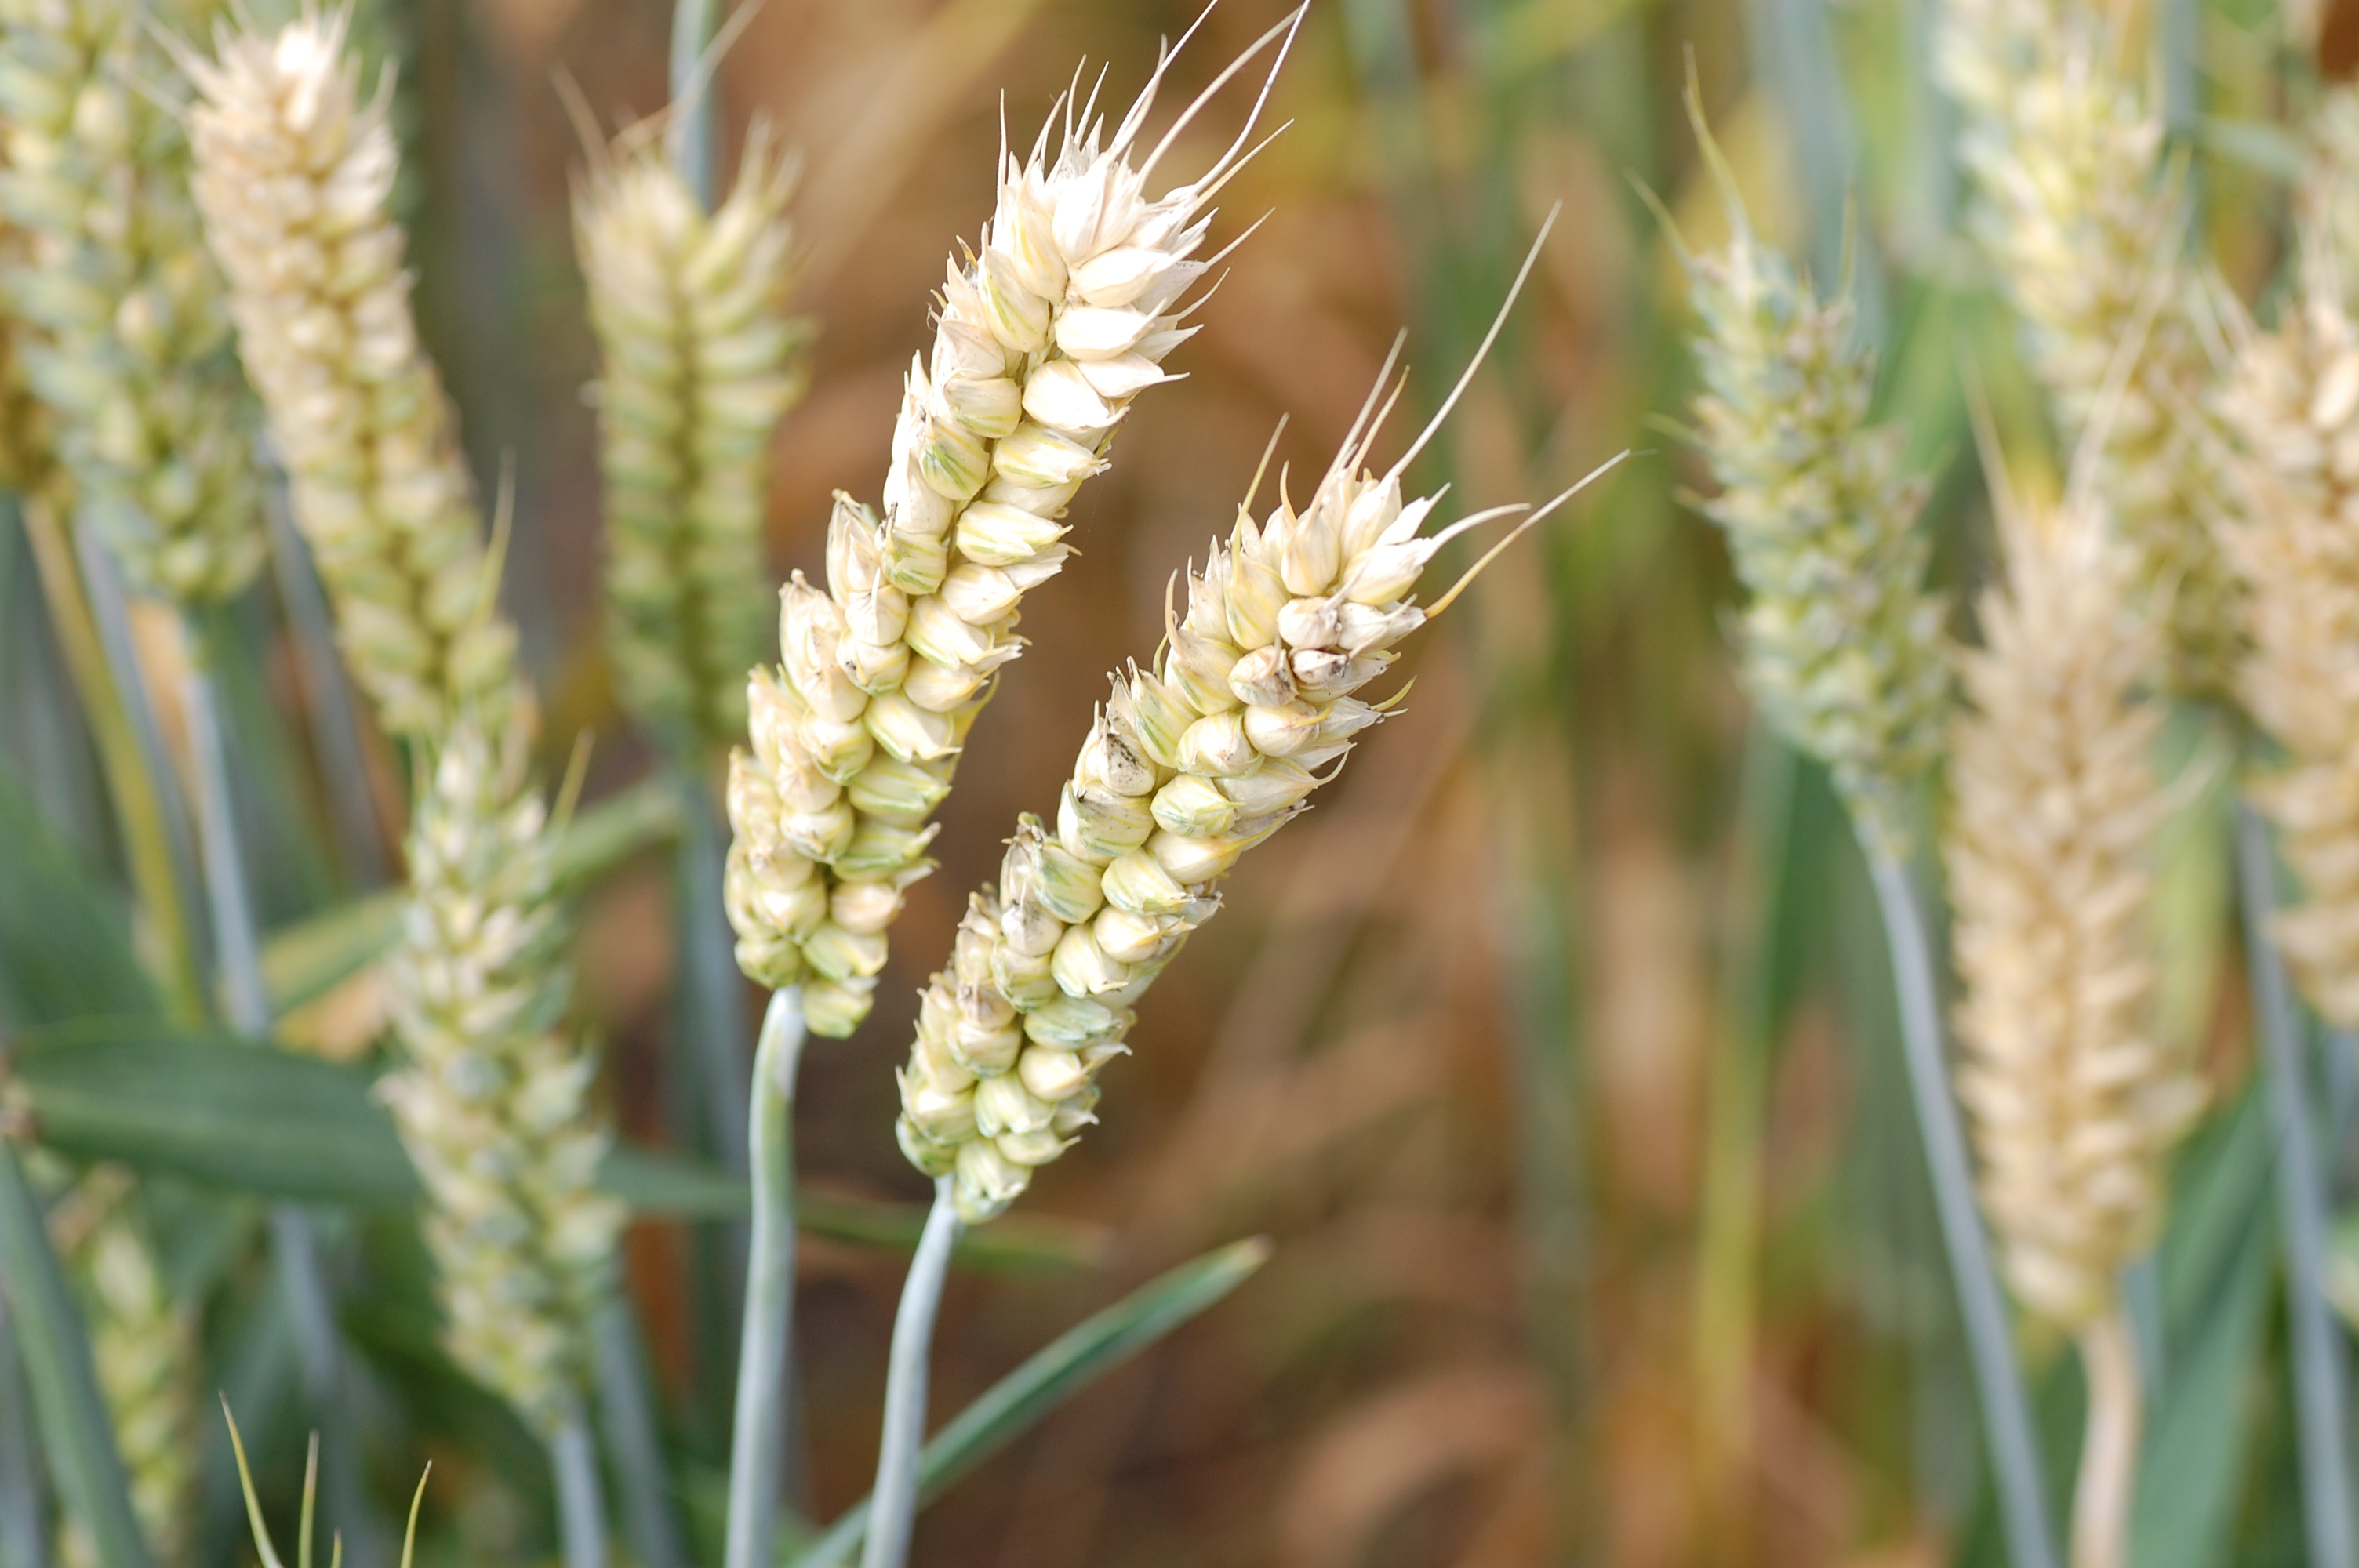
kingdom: Plantae
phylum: Tracheophyta
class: Liliopsida
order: Poales
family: Poaceae
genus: Triticum
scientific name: Triticum aestivum
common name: Common wheat
